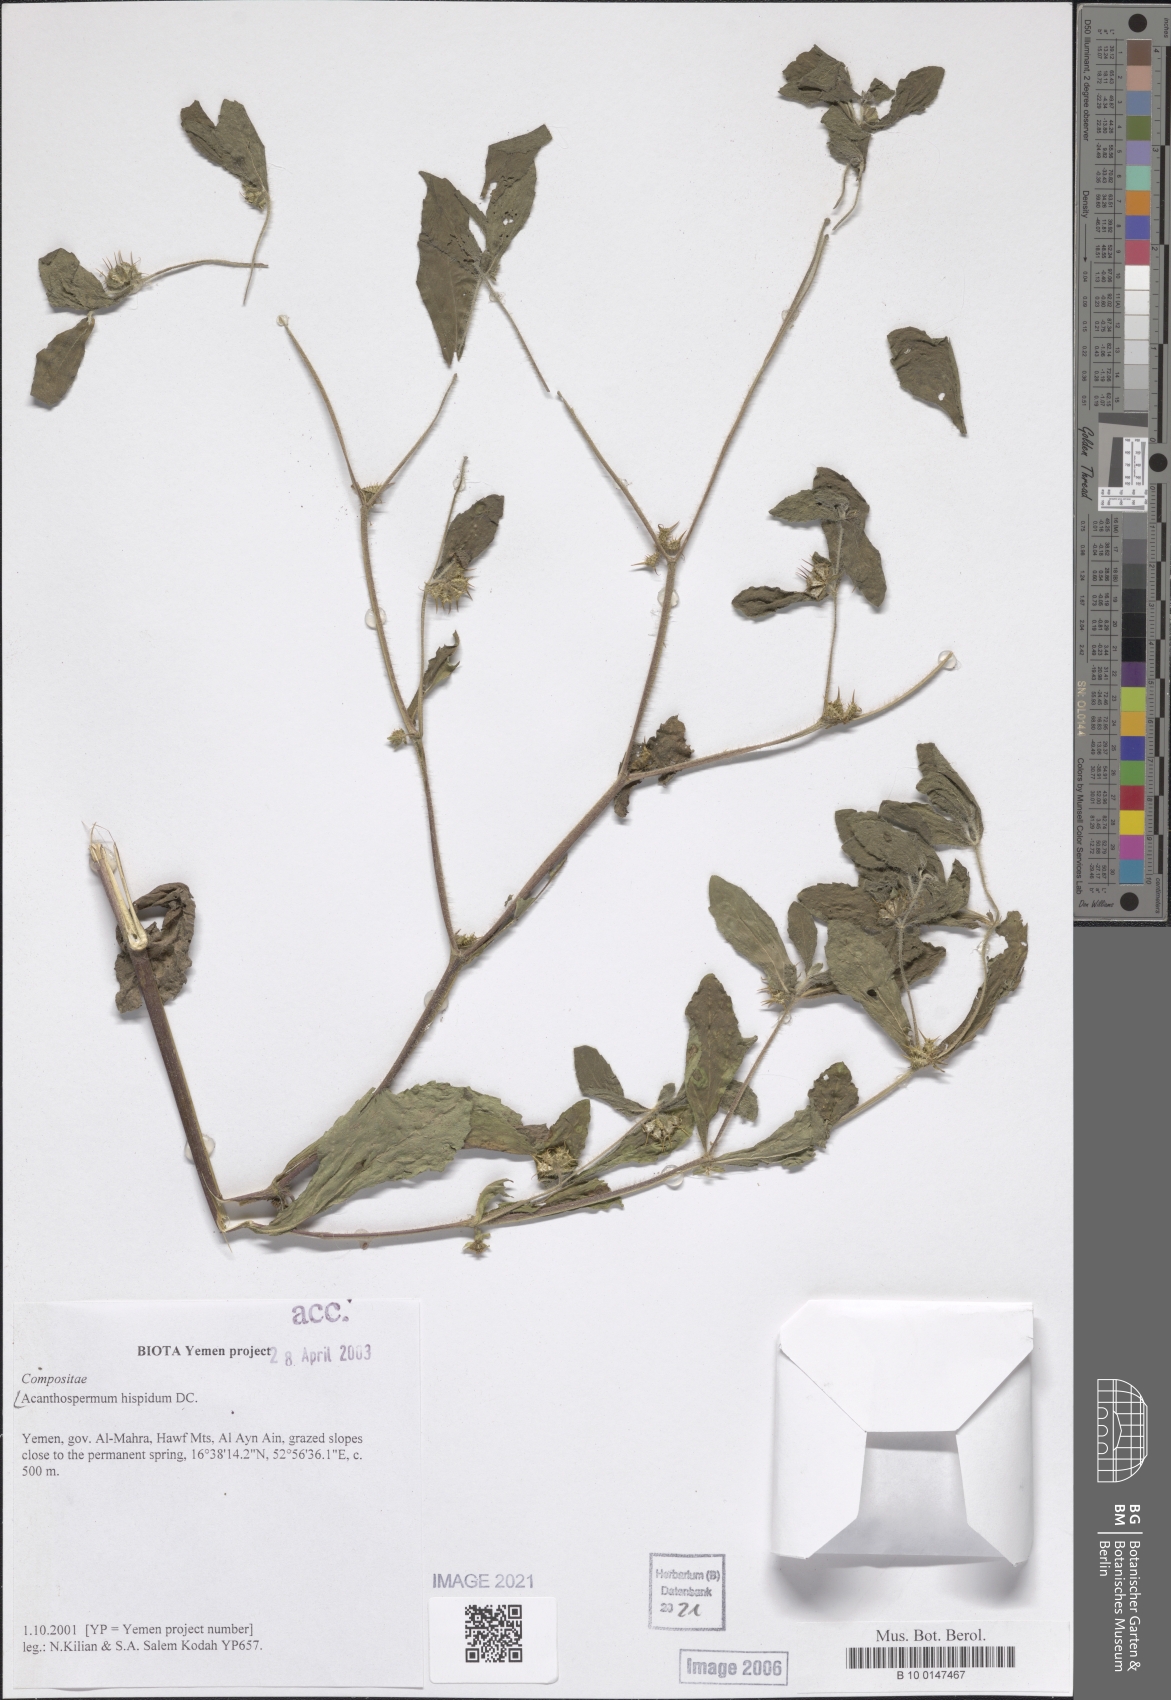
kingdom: Plantae
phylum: Tracheophyta
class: Magnoliopsida
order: Asterales
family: Asteraceae
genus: Acanthospermum
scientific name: Acanthospermum hispidum
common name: Hispid starbur
